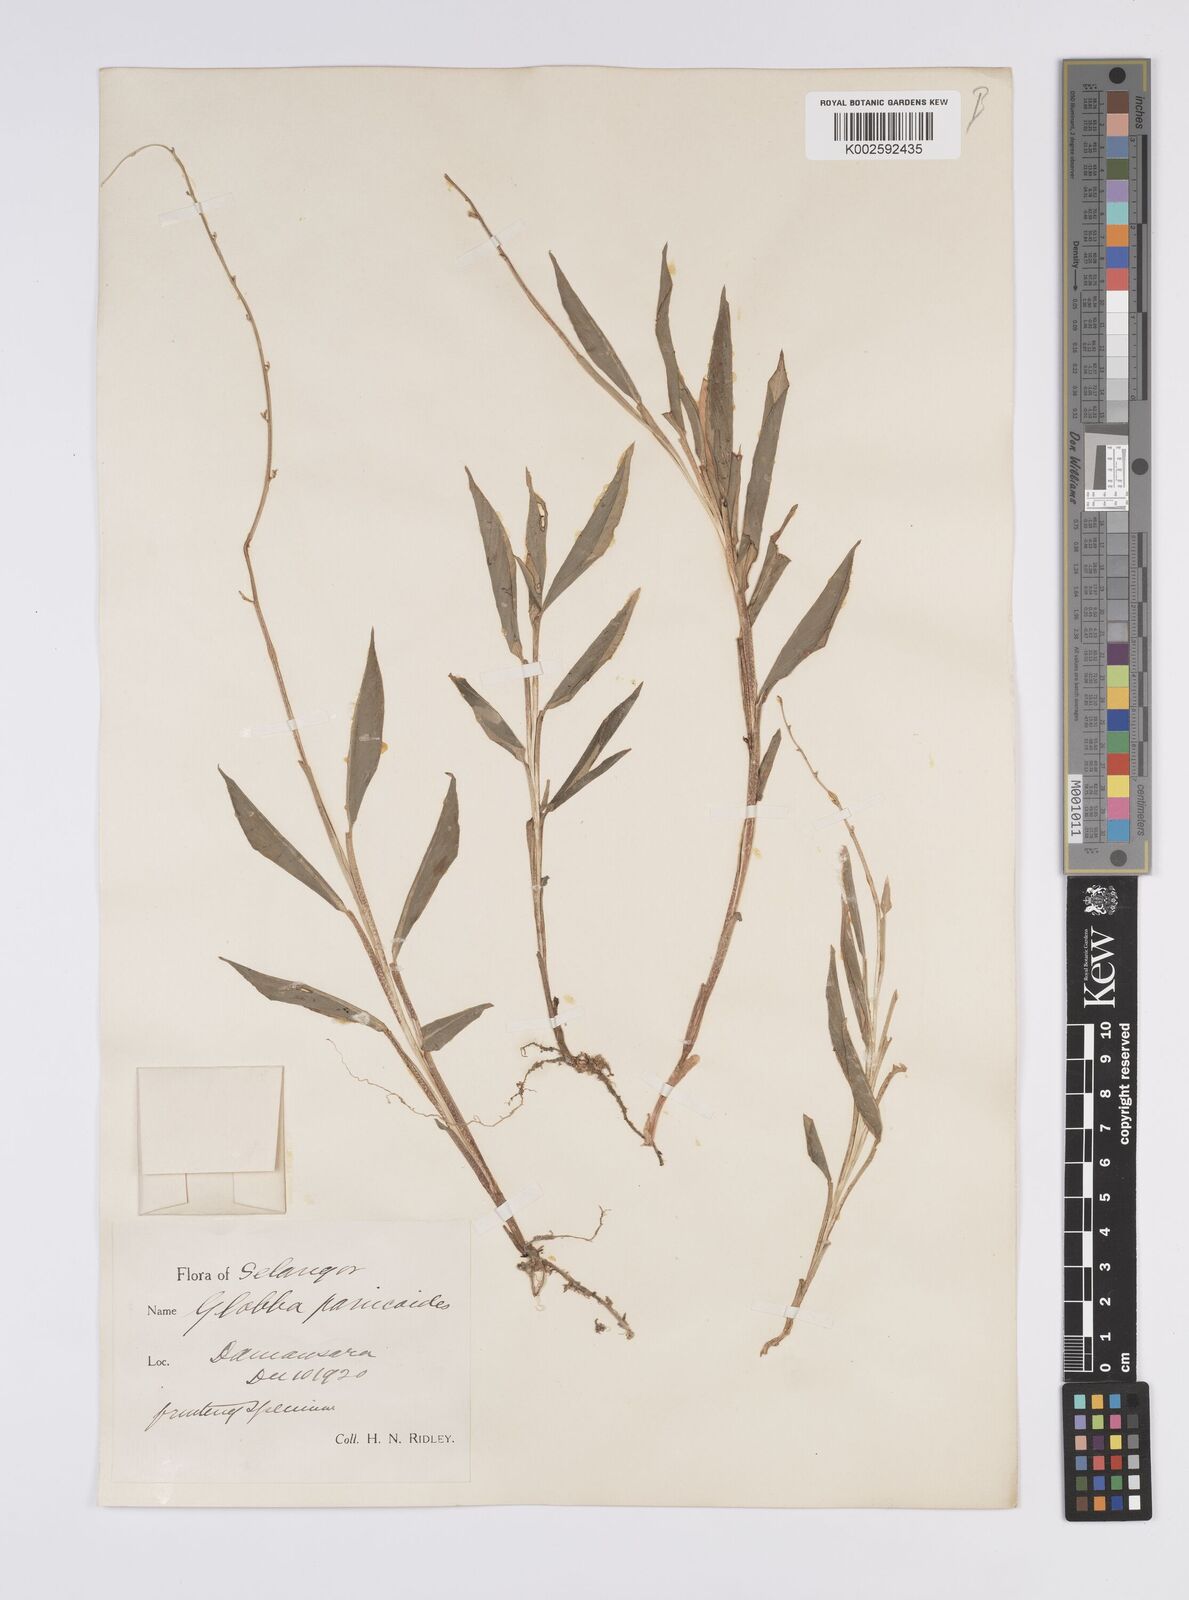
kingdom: Plantae
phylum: Tracheophyta
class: Liliopsida
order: Zingiberales
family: Zingiberaceae
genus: Globba
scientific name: Globba pendula
